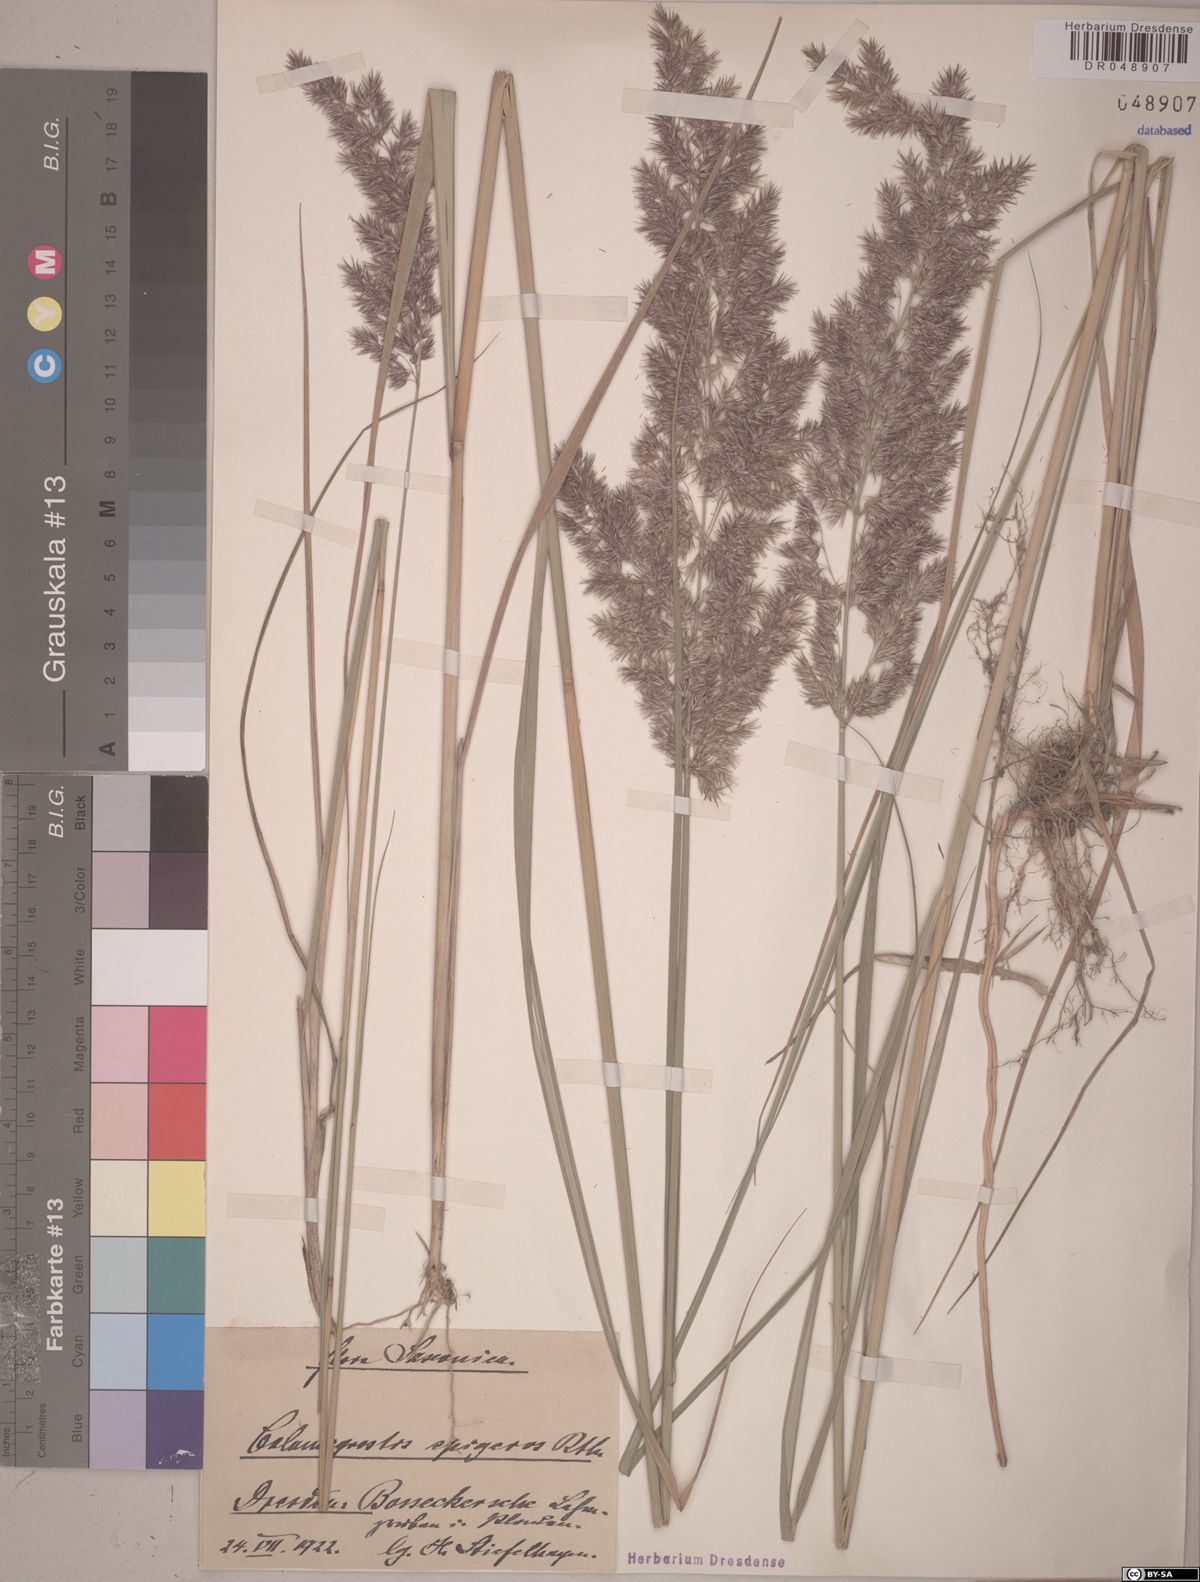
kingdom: Plantae
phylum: Tracheophyta
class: Liliopsida
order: Poales
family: Poaceae
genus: Calamagrostis
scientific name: Calamagrostis epigejos
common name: Wood small-reed
